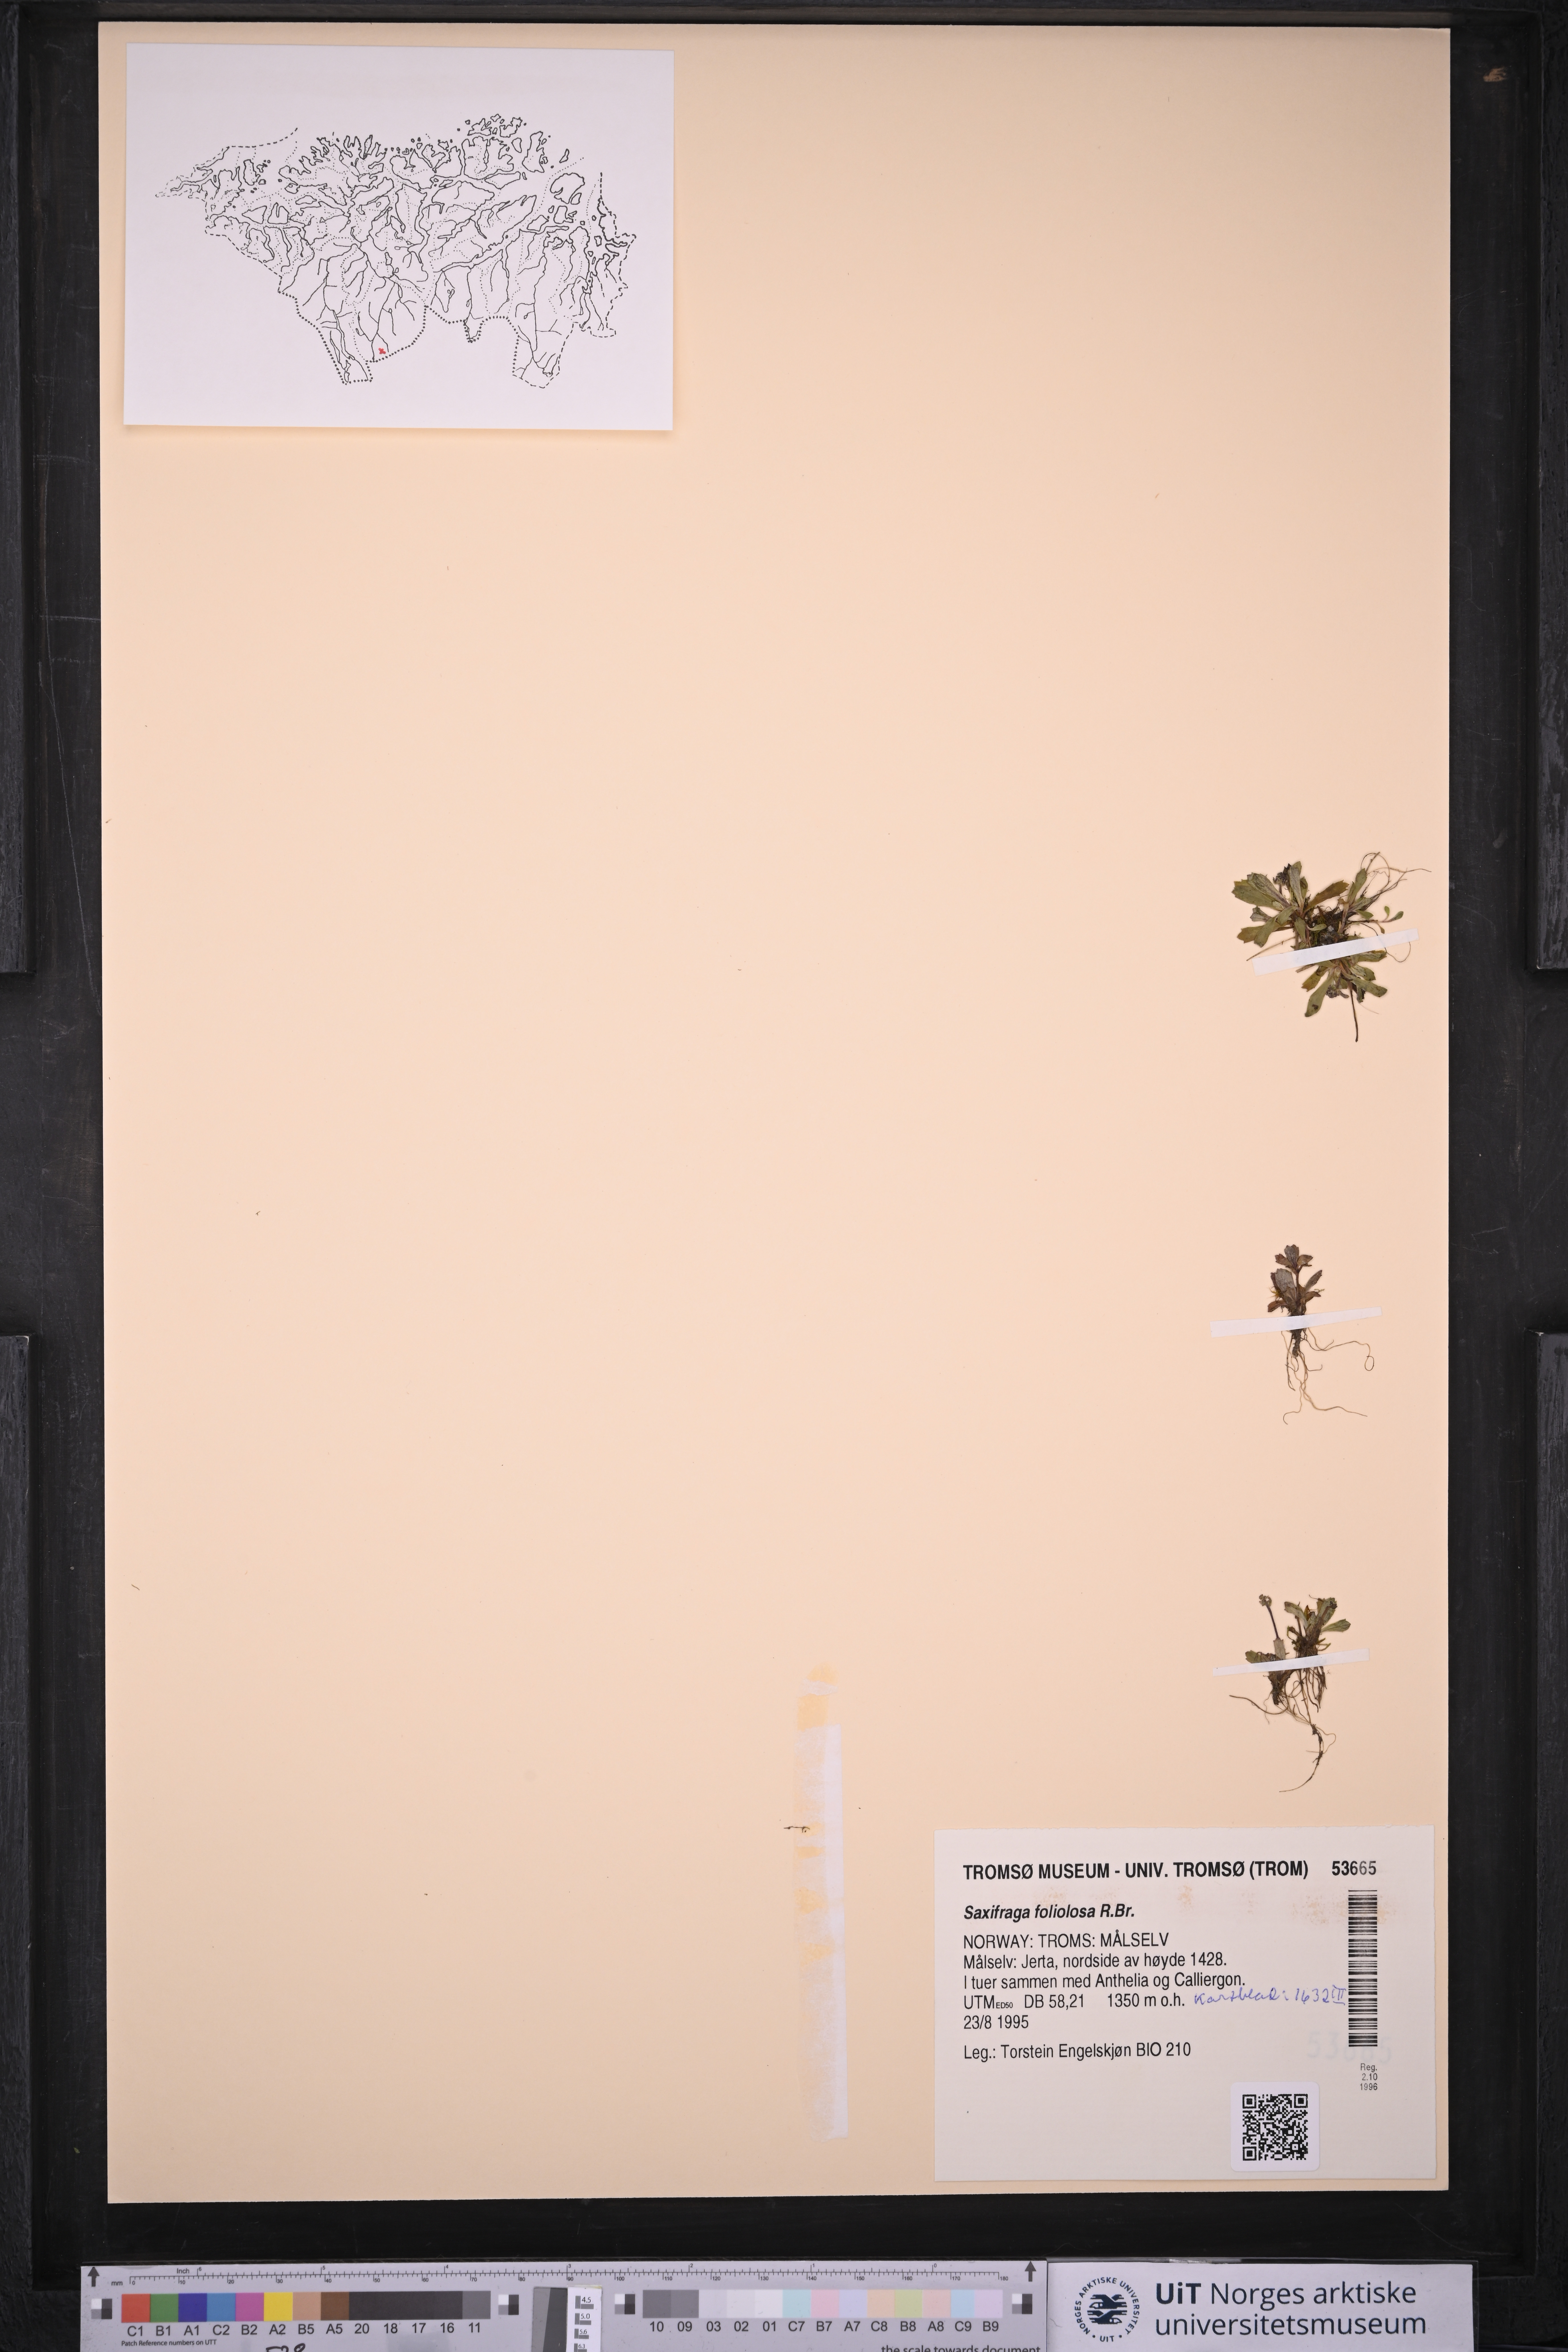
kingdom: Plantae
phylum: Tracheophyta
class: Magnoliopsida
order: Saxifragales
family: Saxifragaceae
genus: Micranthes
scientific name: Micranthes foliolosa
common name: Leafystem saxifrage
